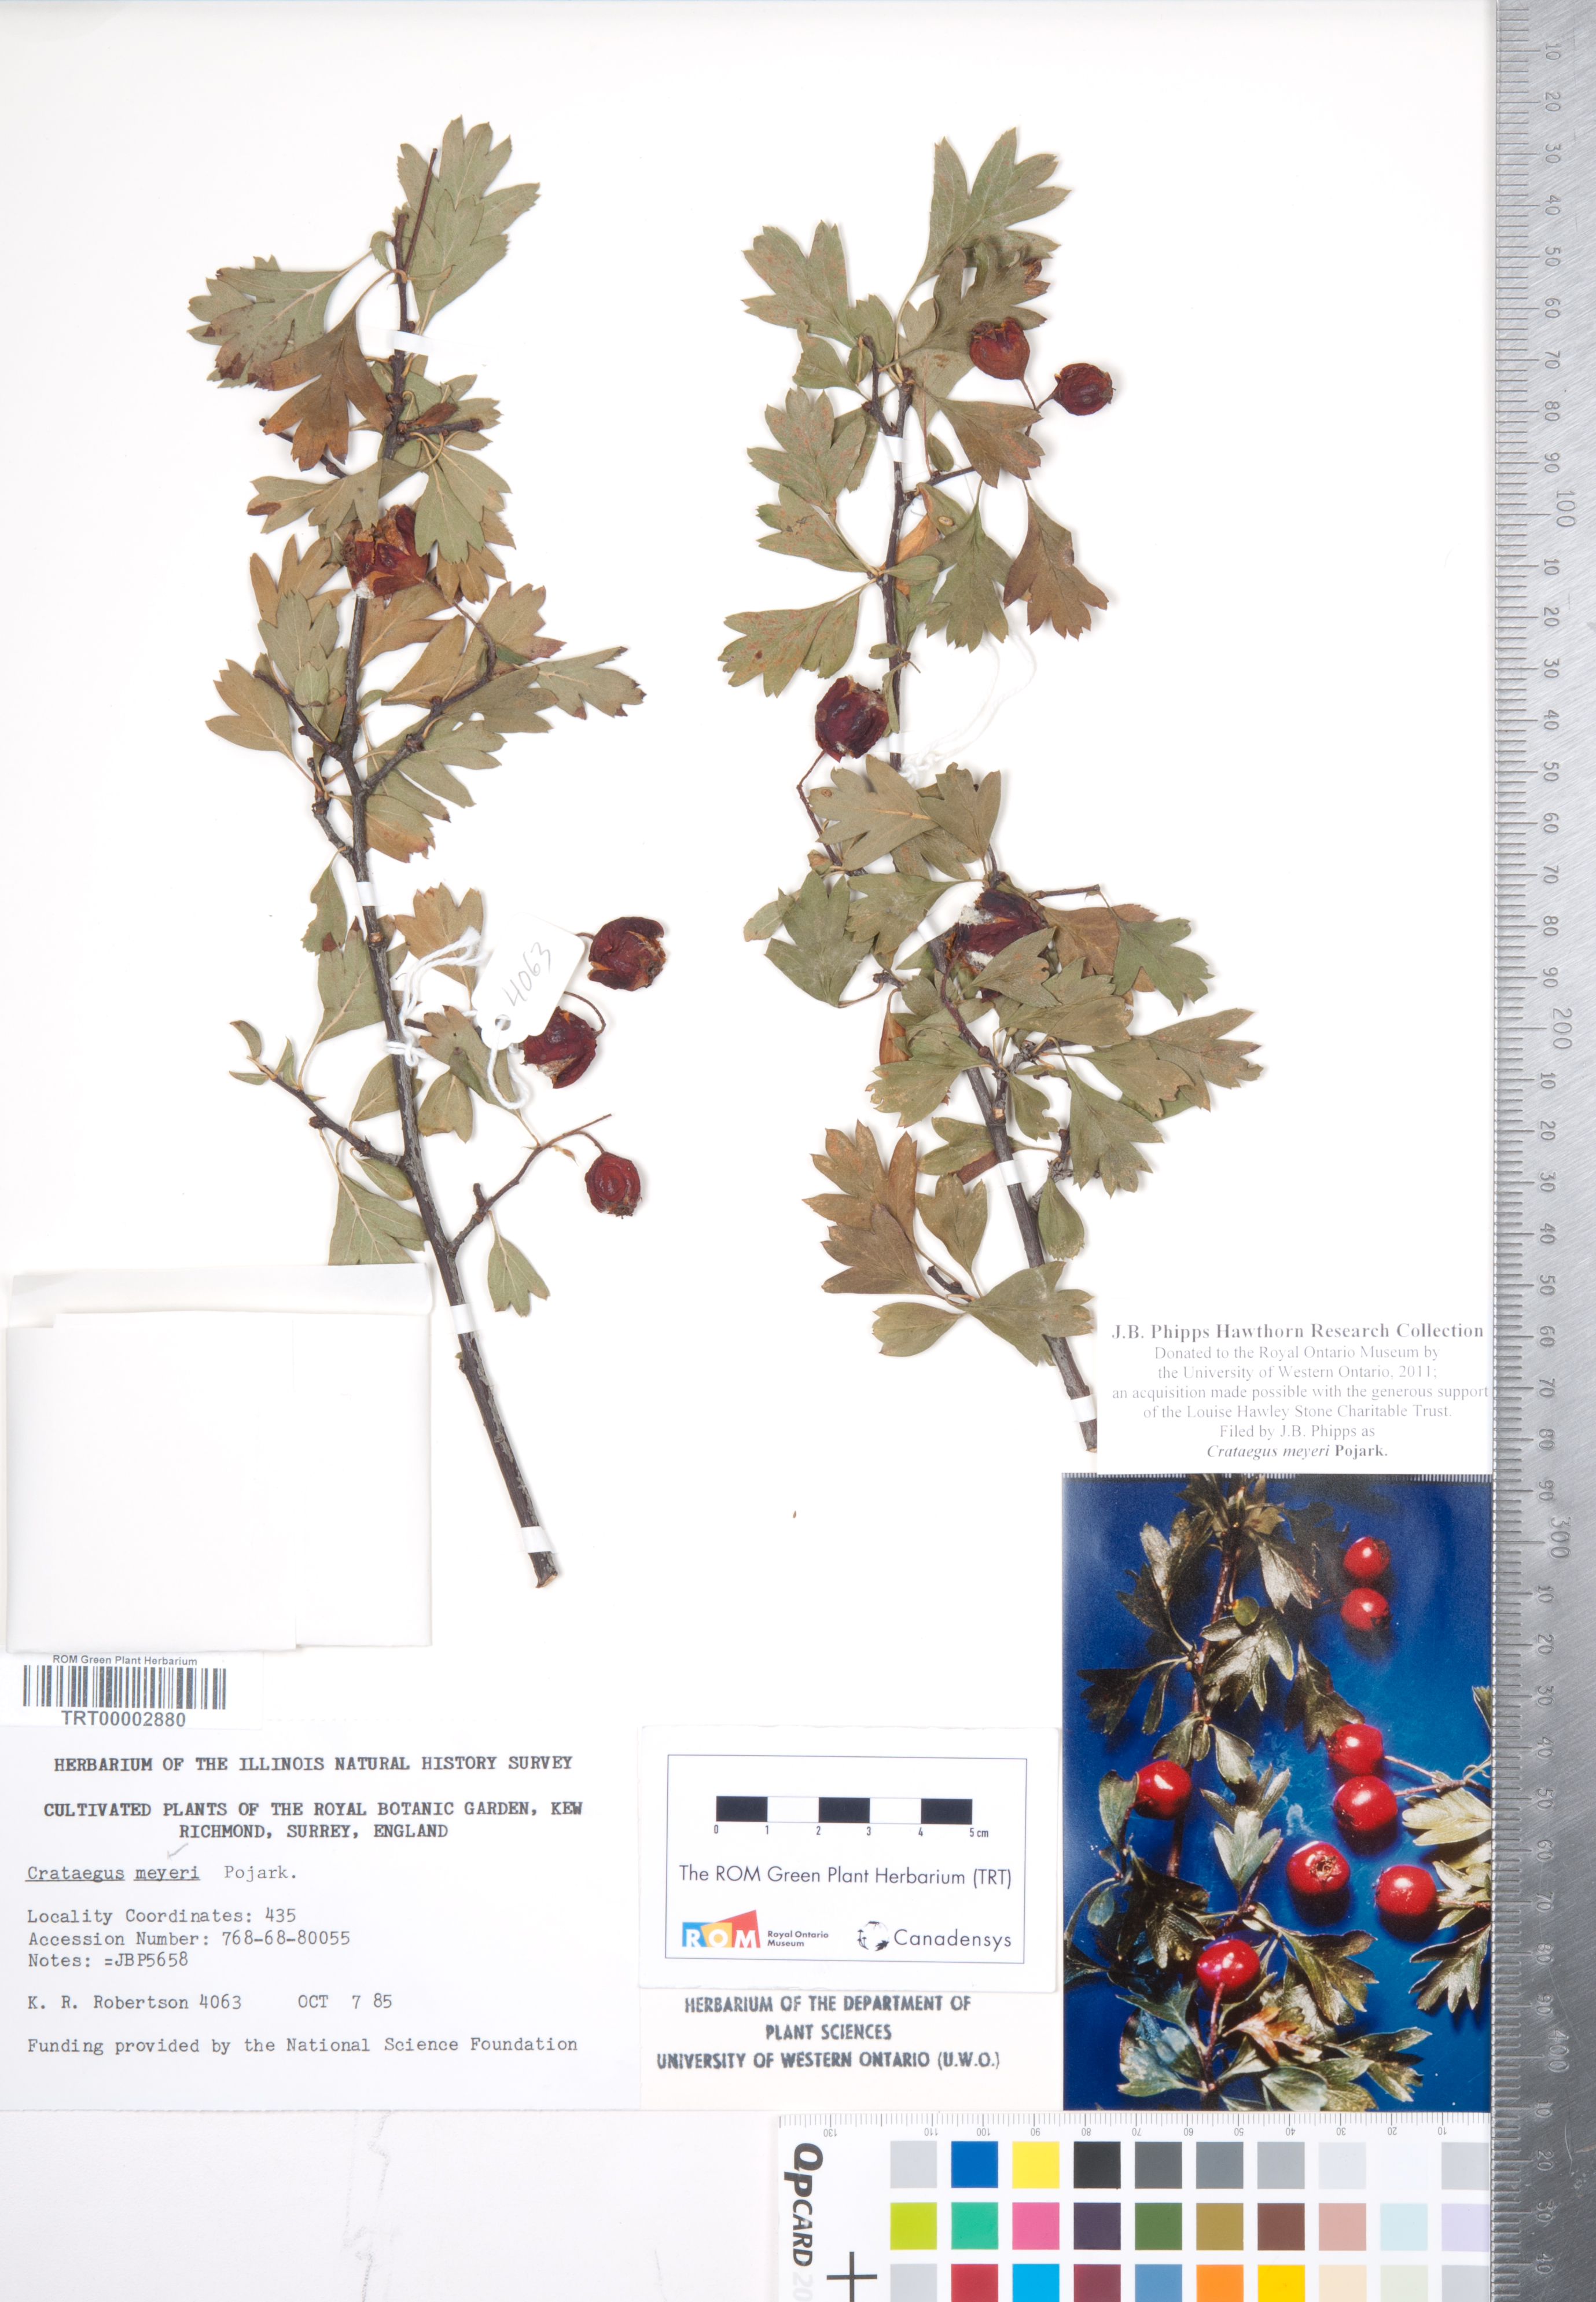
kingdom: Plantae
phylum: Tracheophyta
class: Magnoliopsida
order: Rosales
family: Rosaceae
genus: Crataegus
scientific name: Crataegus meyeri
